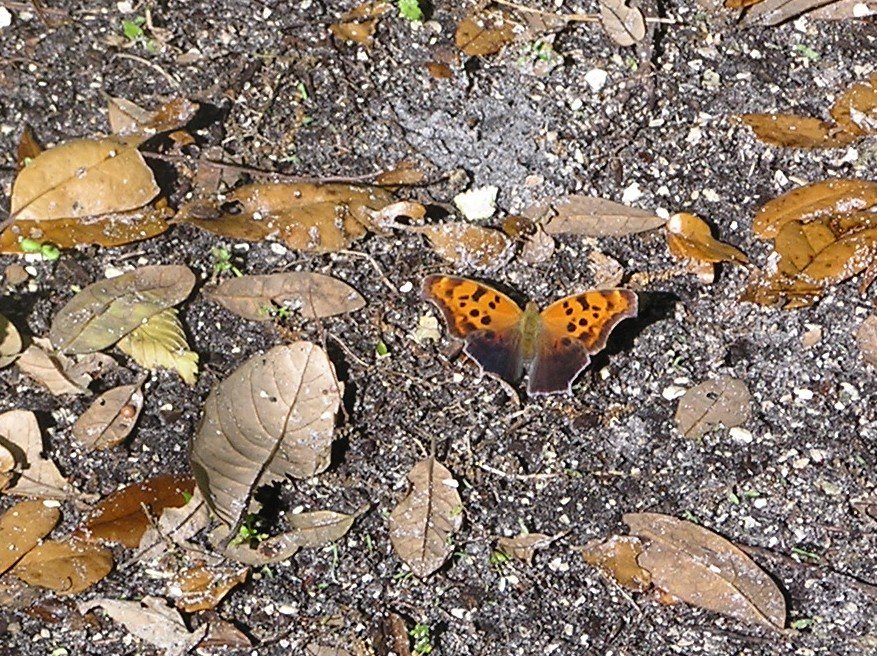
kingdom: Animalia
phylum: Arthropoda
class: Insecta
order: Lepidoptera
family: Nymphalidae
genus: Polygonia
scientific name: Polygonia interrogationis
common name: Question Mark
